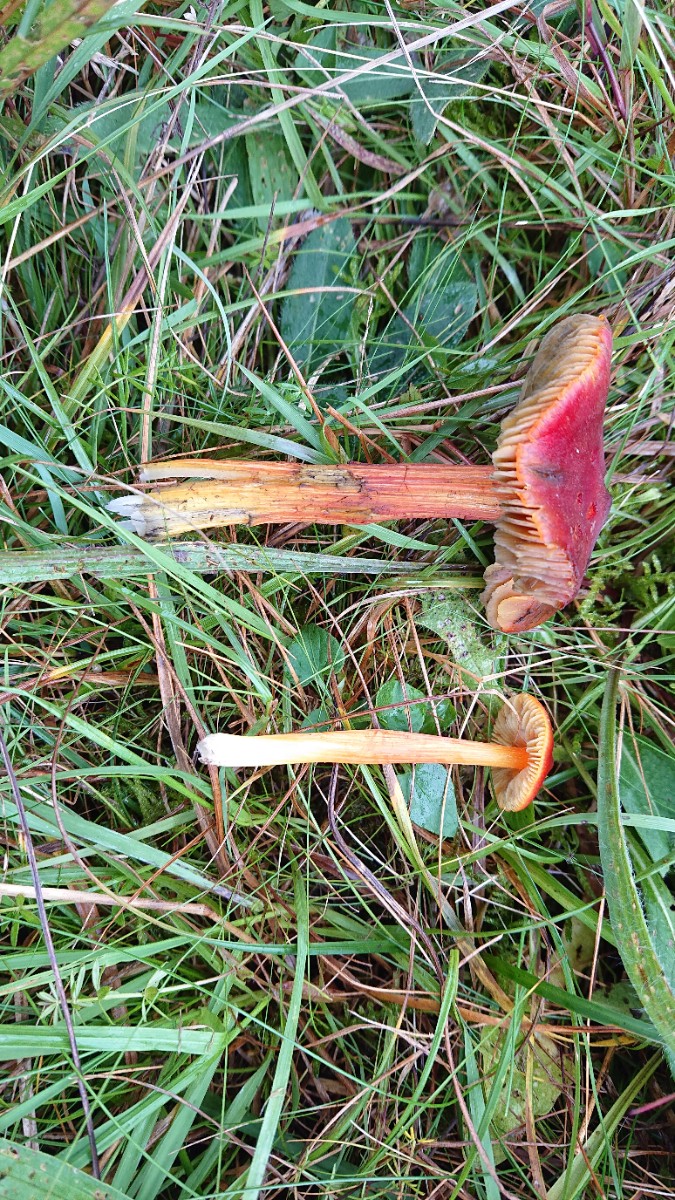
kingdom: Fungi
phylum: Basidiomycota
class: Agaricomycetes
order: Agaricales
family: Hygrophoraceae
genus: Hygrocybe
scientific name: Hygrocybe conica
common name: kegle-vokshat
